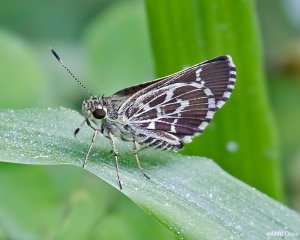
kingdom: Animalia
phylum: Arthropoda
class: Insecta
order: Lepidoptera
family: Hesperiidae
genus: Mastor
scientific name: Mastor aesculapius
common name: Lace-winged Roadside-Skipper
